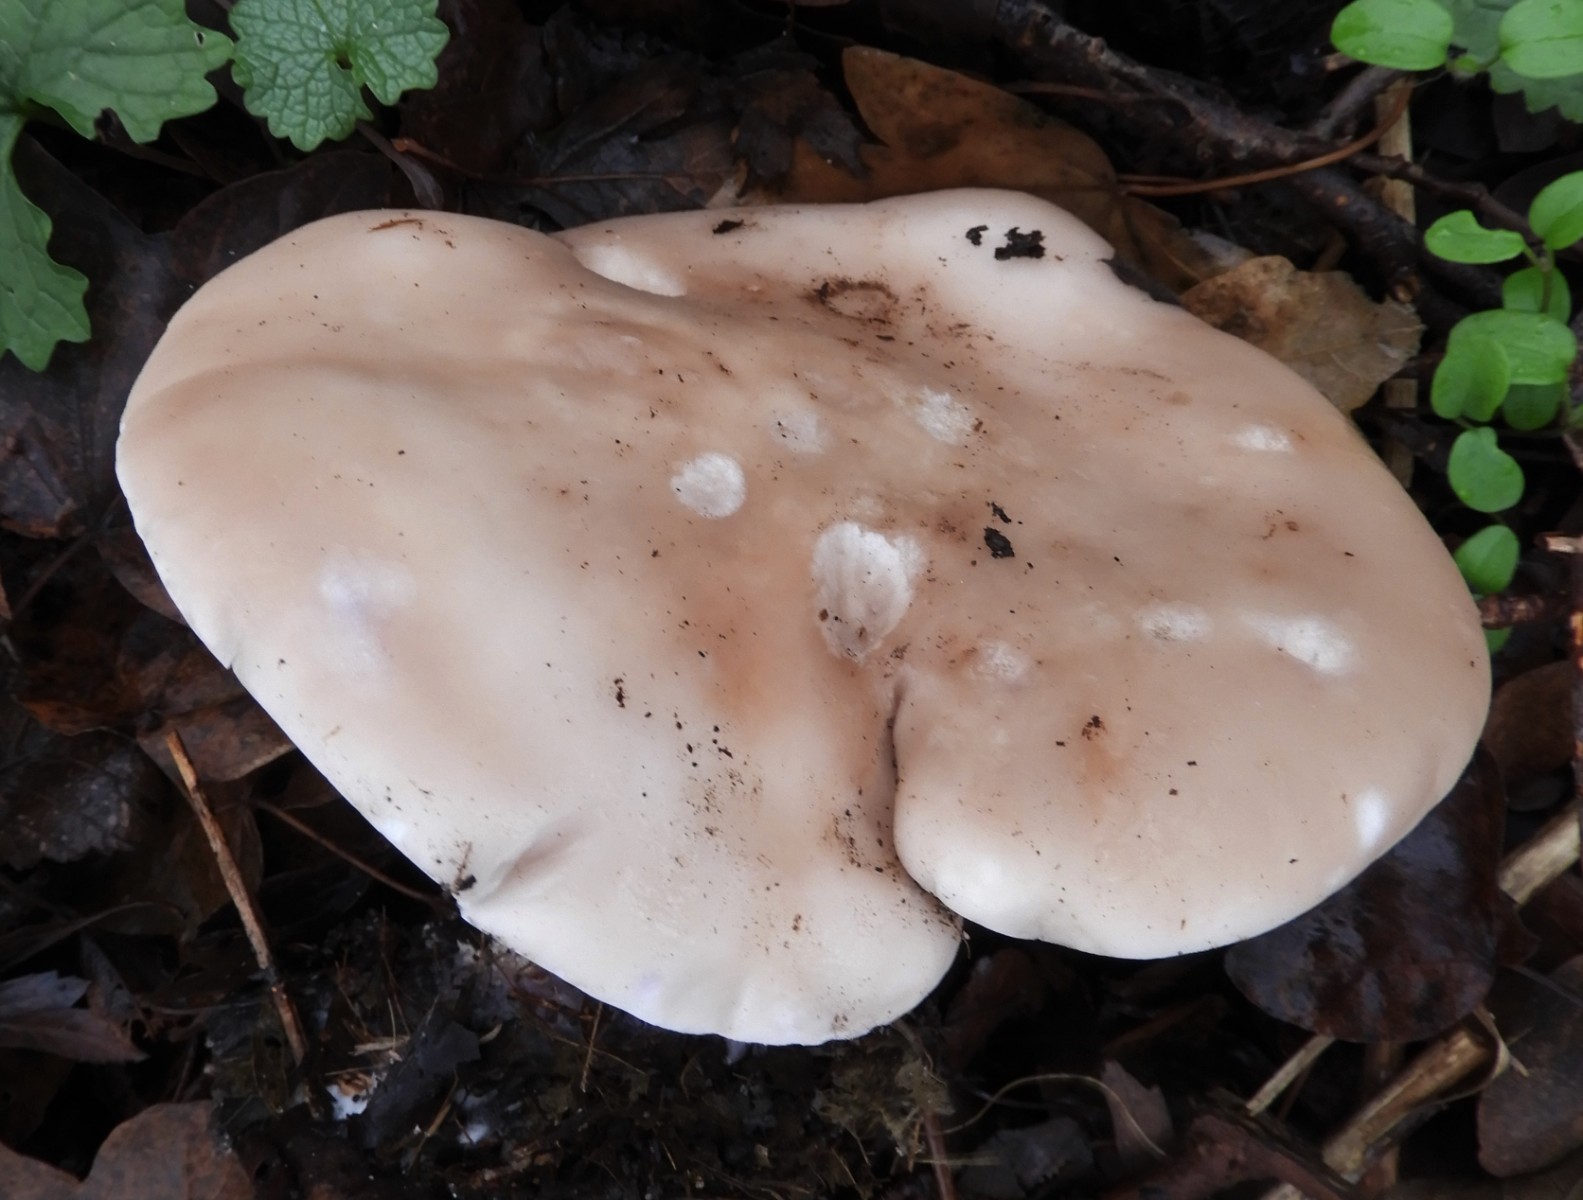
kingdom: Fungi
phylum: Basidiomycota
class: Agaricomycetes
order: Agaricales
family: Tricholomataceae
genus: Lepista
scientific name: Lepista personata
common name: bleg hekseringshat
